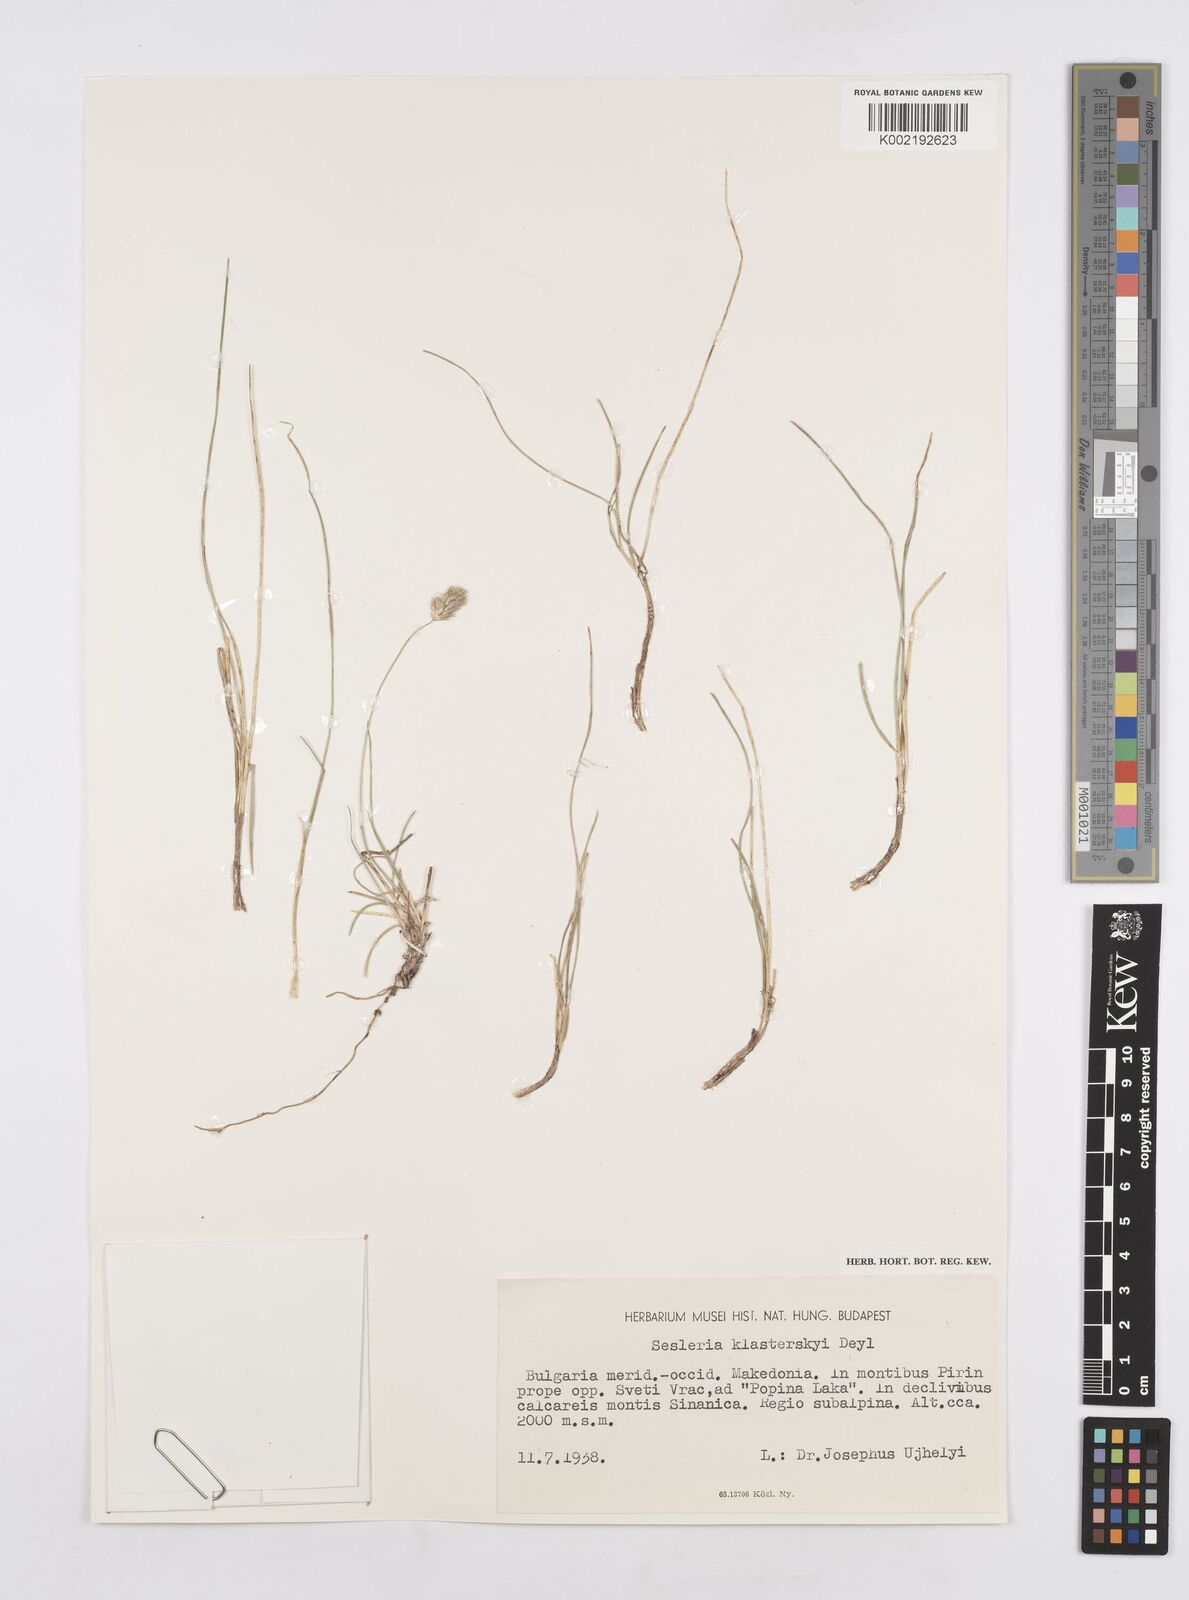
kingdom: Plantae
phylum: Tracheophyta
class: Liliopsida
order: Poales
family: Poaceae
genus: Sesleria
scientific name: Sesleria korabensis
